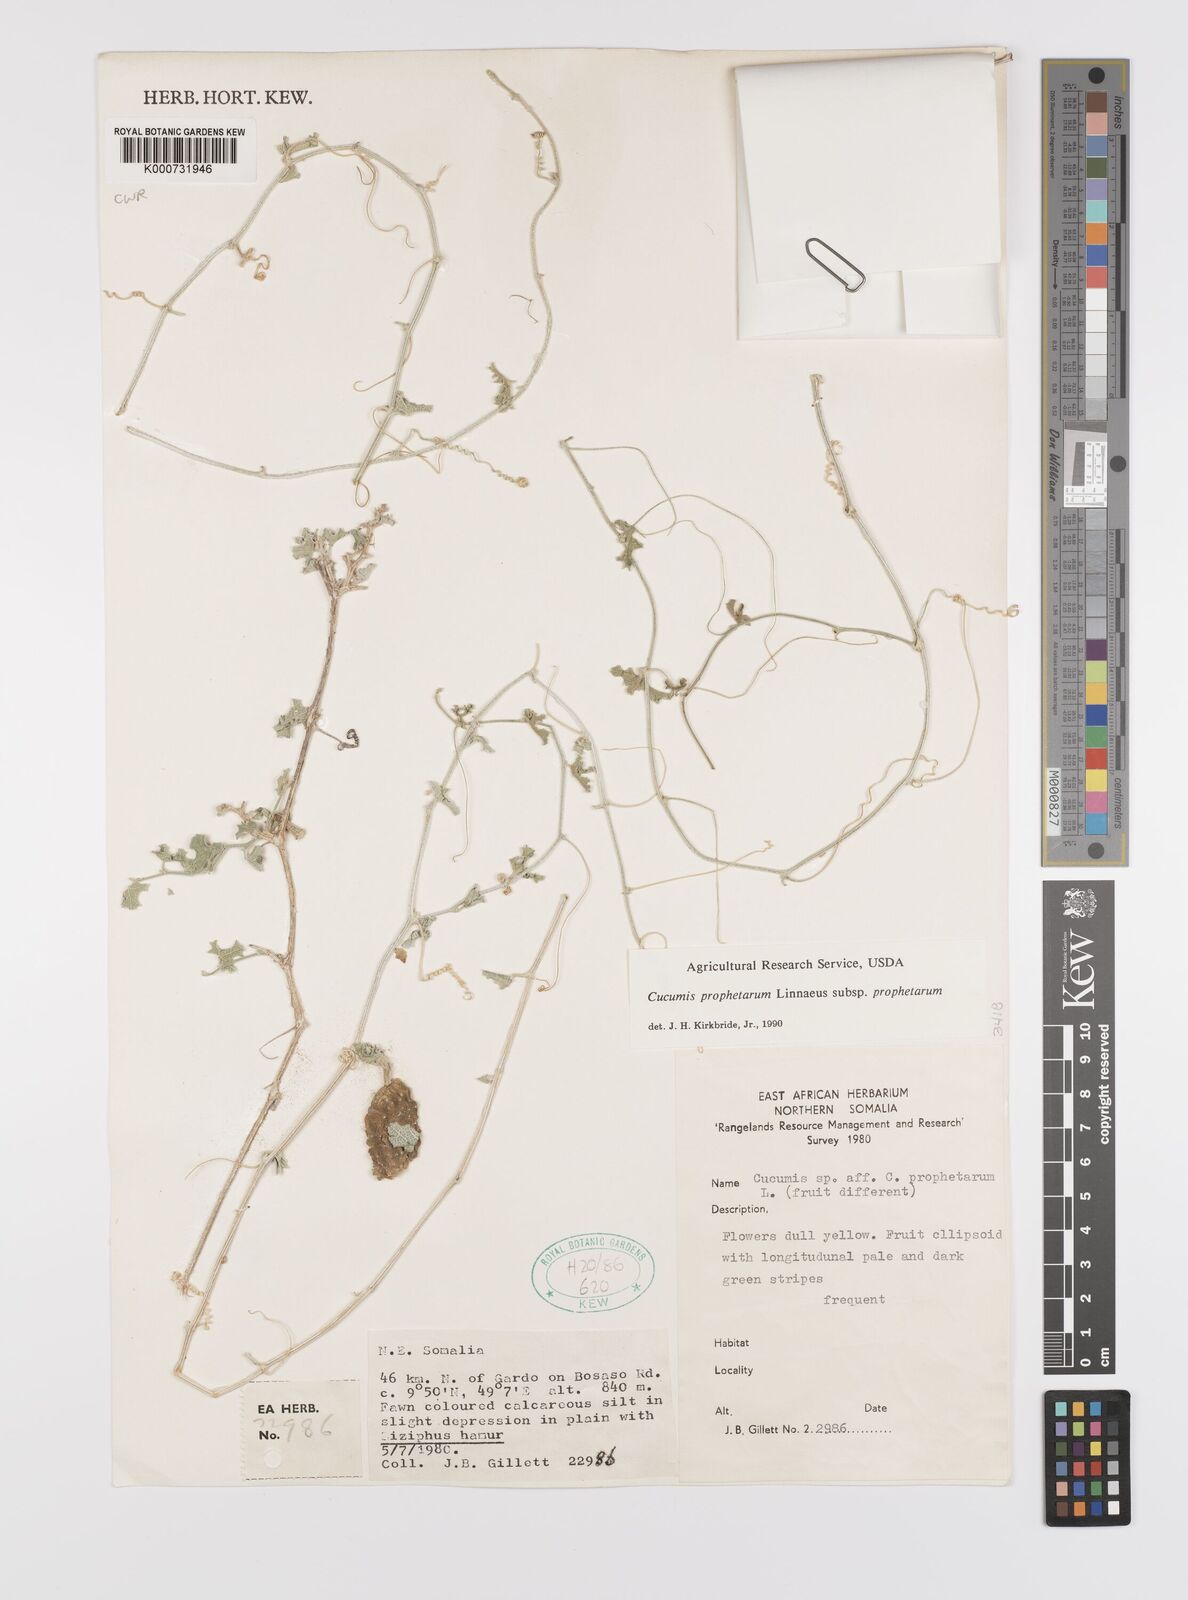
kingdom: Plantae
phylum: Tracheophyta
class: Magnoliopsida
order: Cucurbitales
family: Cucurbitaceae
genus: Cucumis
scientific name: Cucumis
